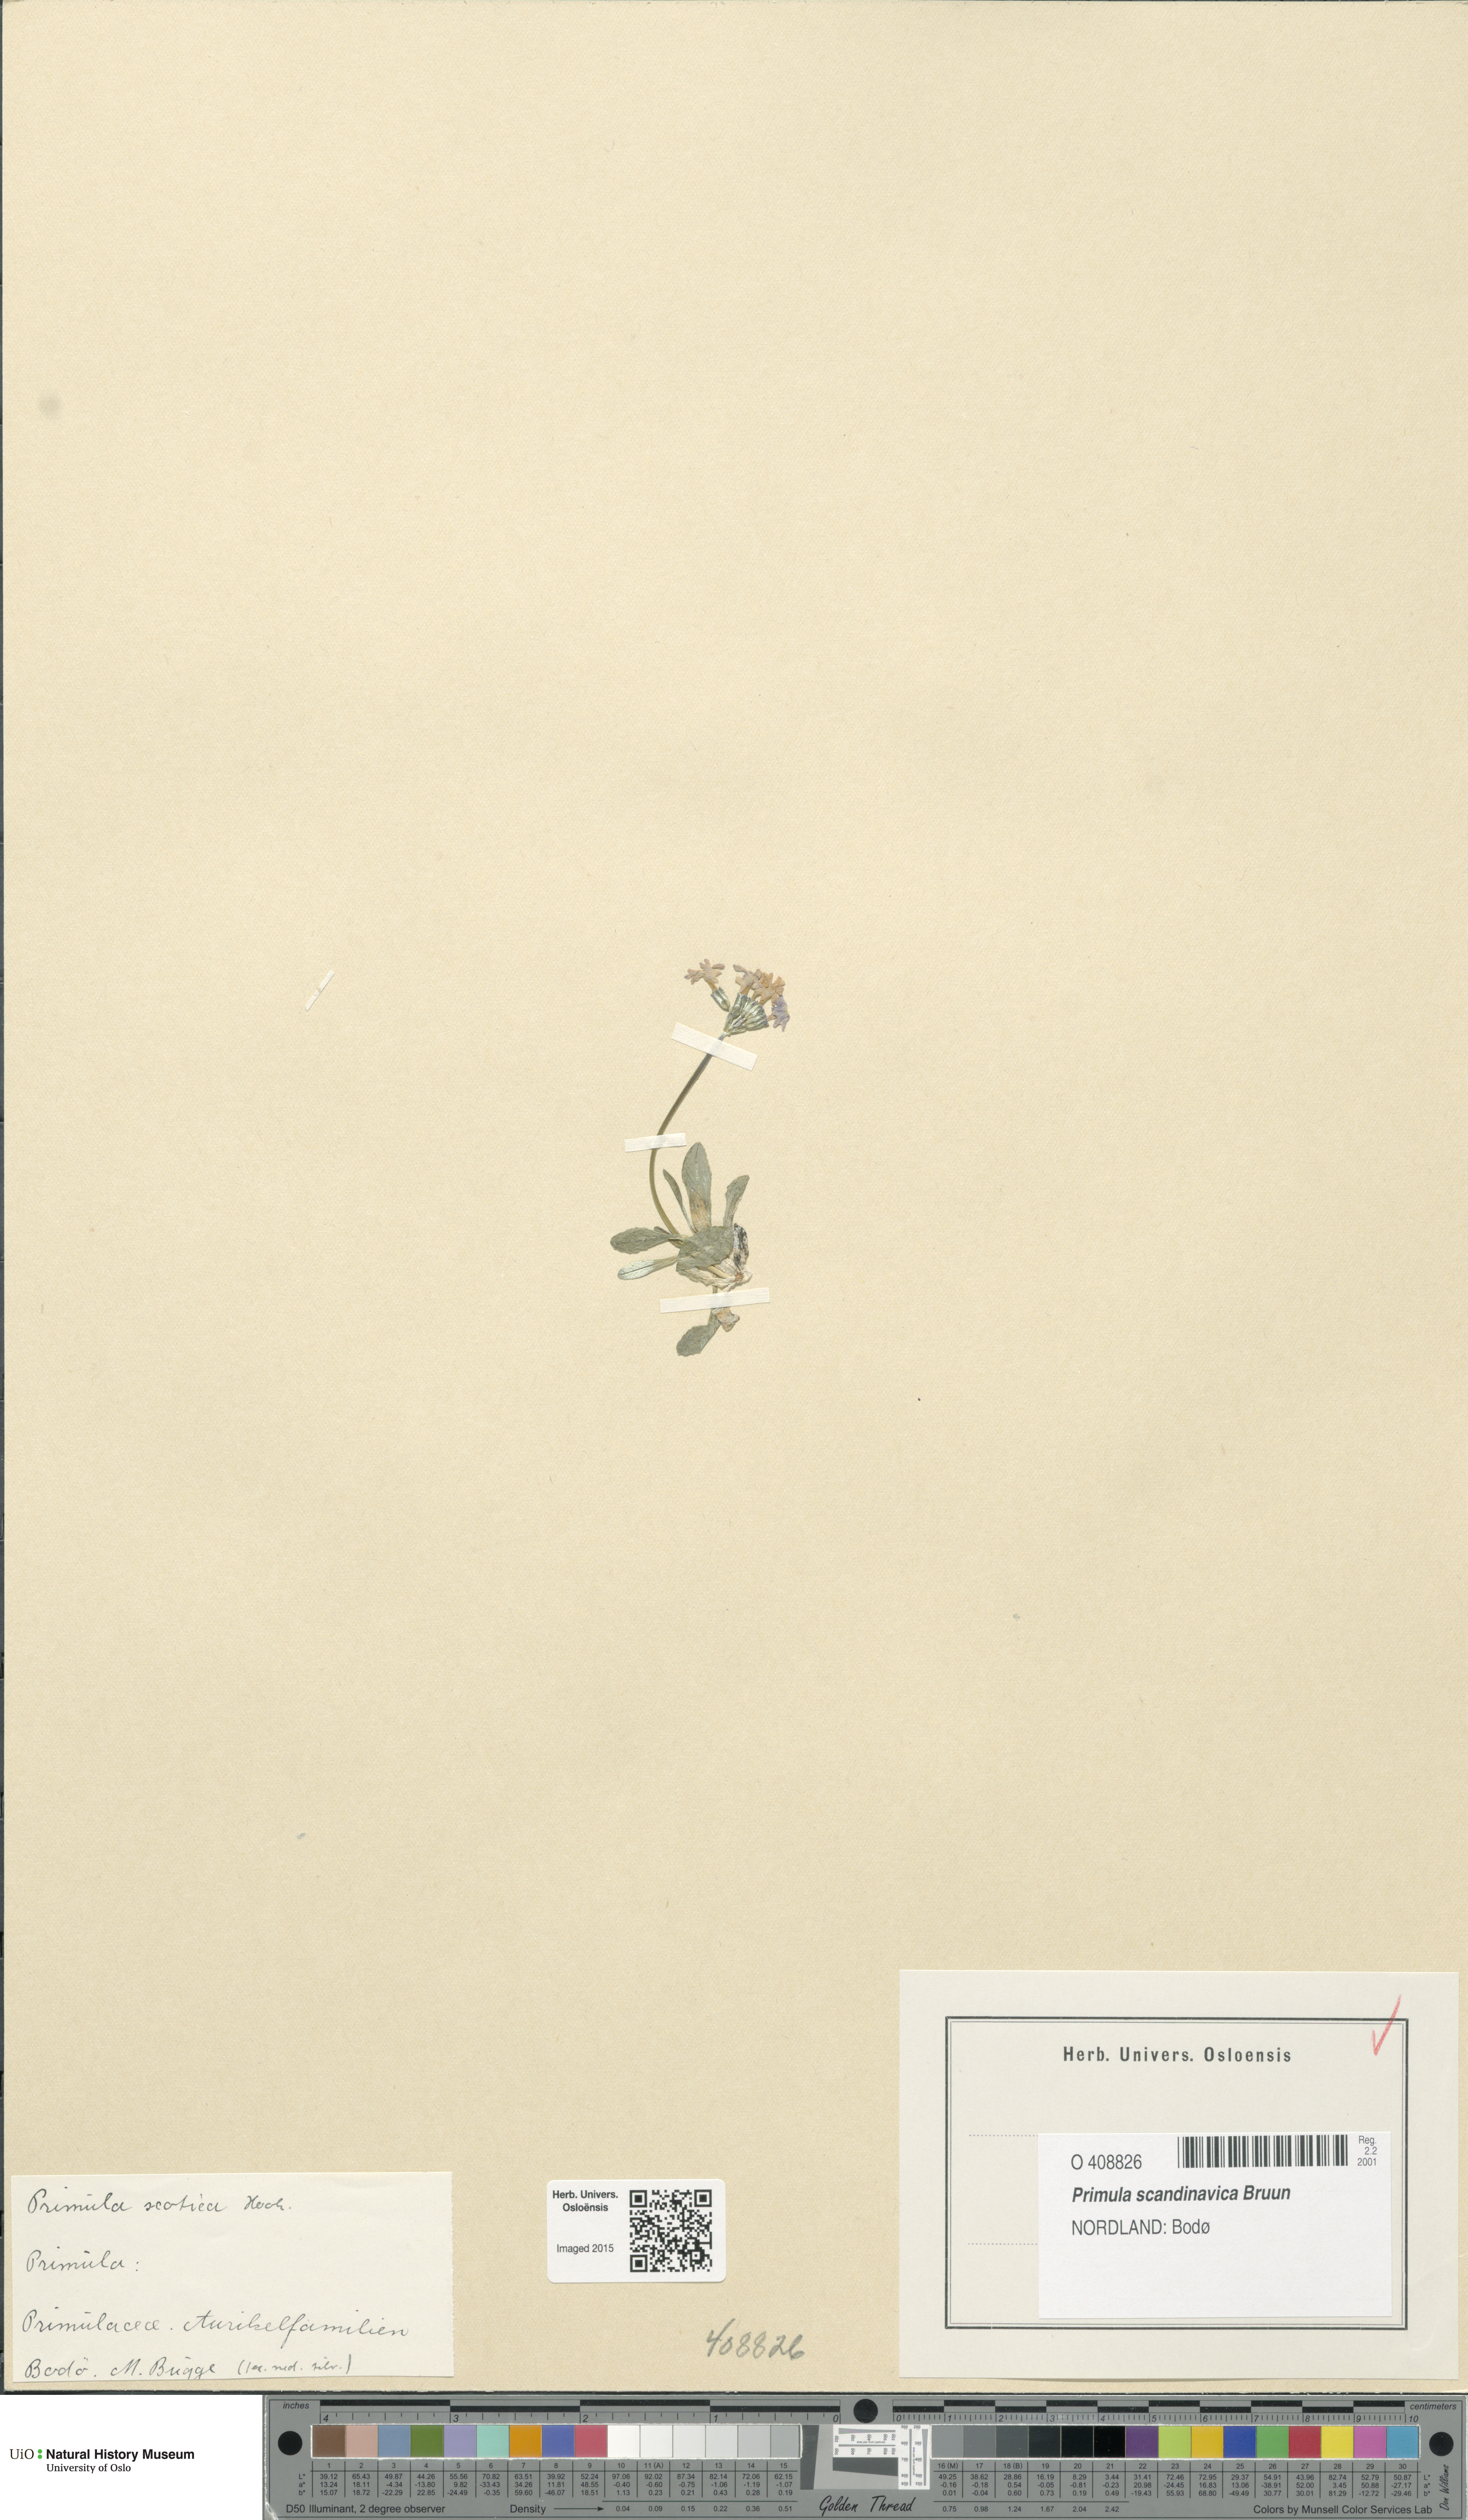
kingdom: Plantae
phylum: Tracheophyta
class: Magnoliopsida
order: Ericales
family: Primulaceae
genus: Primula
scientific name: Primula scandinavica
